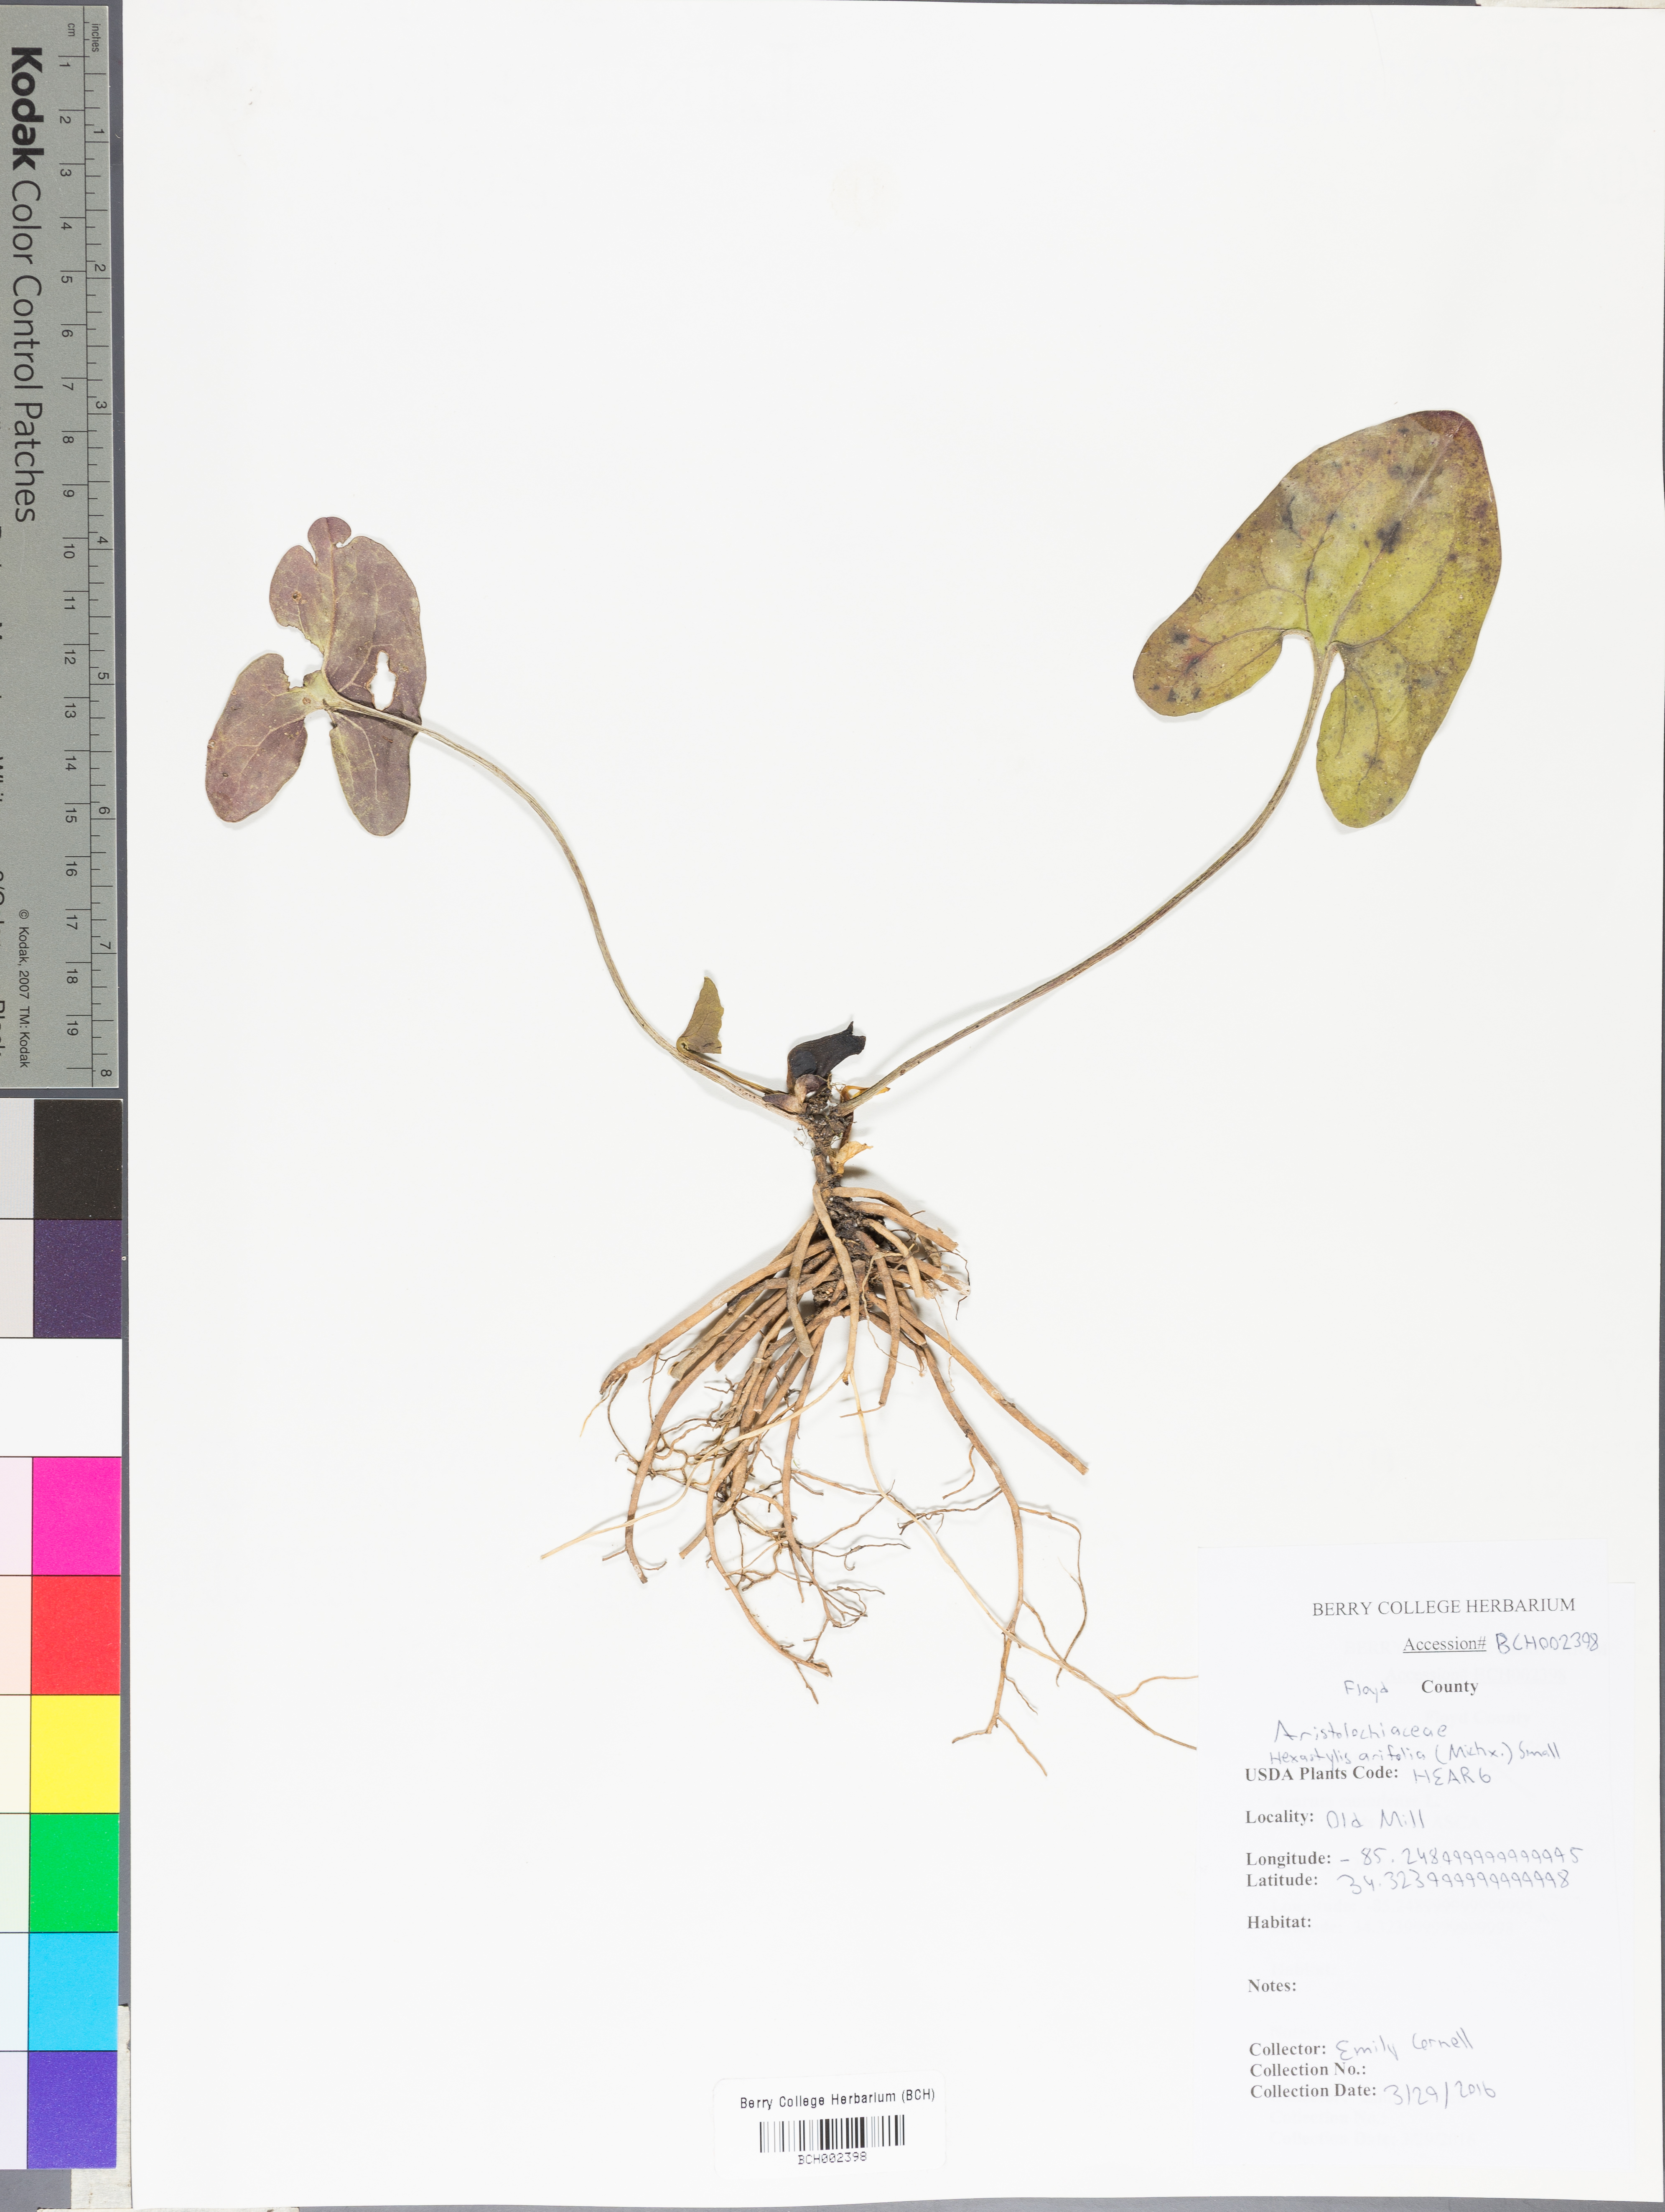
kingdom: Plantae
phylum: Tracheophyta
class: Magnoliopsida
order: Piperales
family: Aristolochiaceae
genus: Hexastylis
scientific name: Hexastylis arifolia
